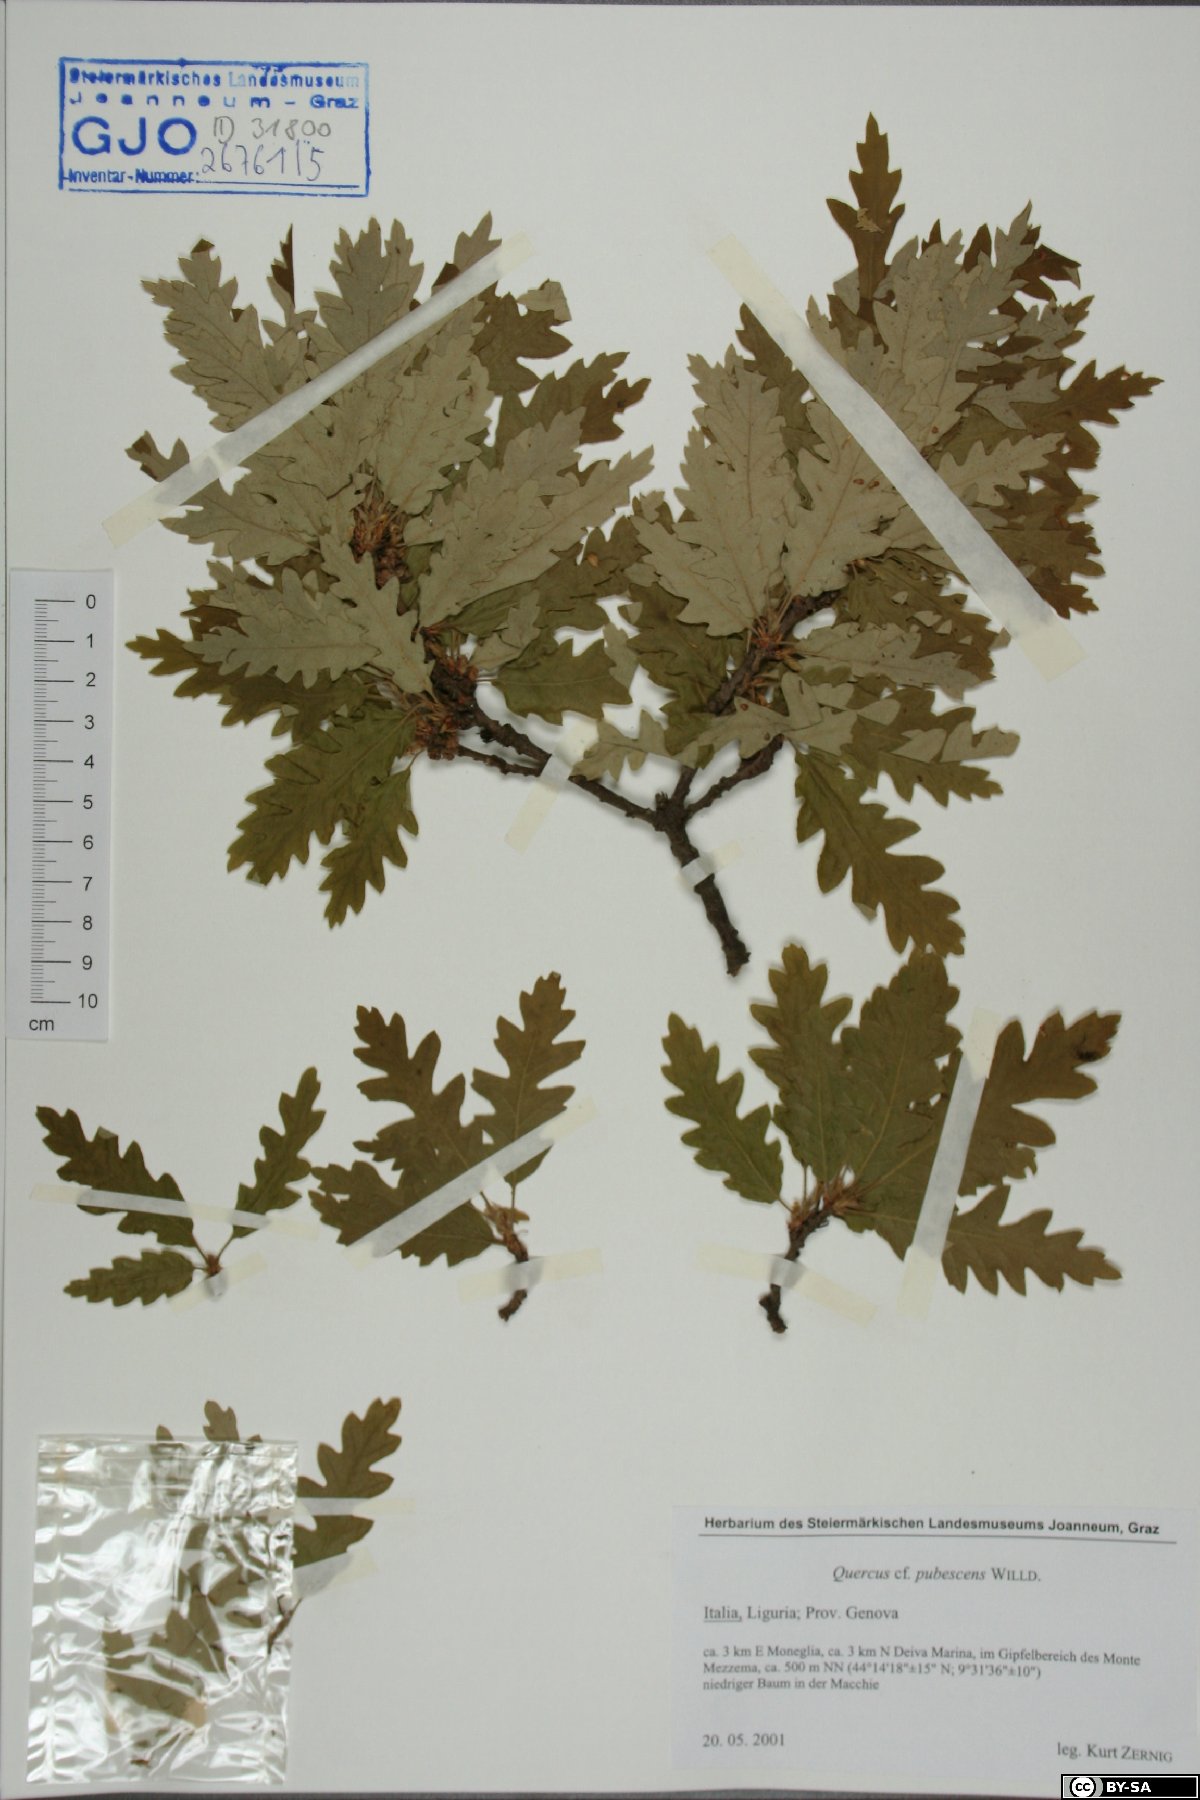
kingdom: Plantae
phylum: Tracheophyta
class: Magnoliopsida
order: Fagales
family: Fagaceae
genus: Quercus
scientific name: Quercus pubescens
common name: Downy oak
